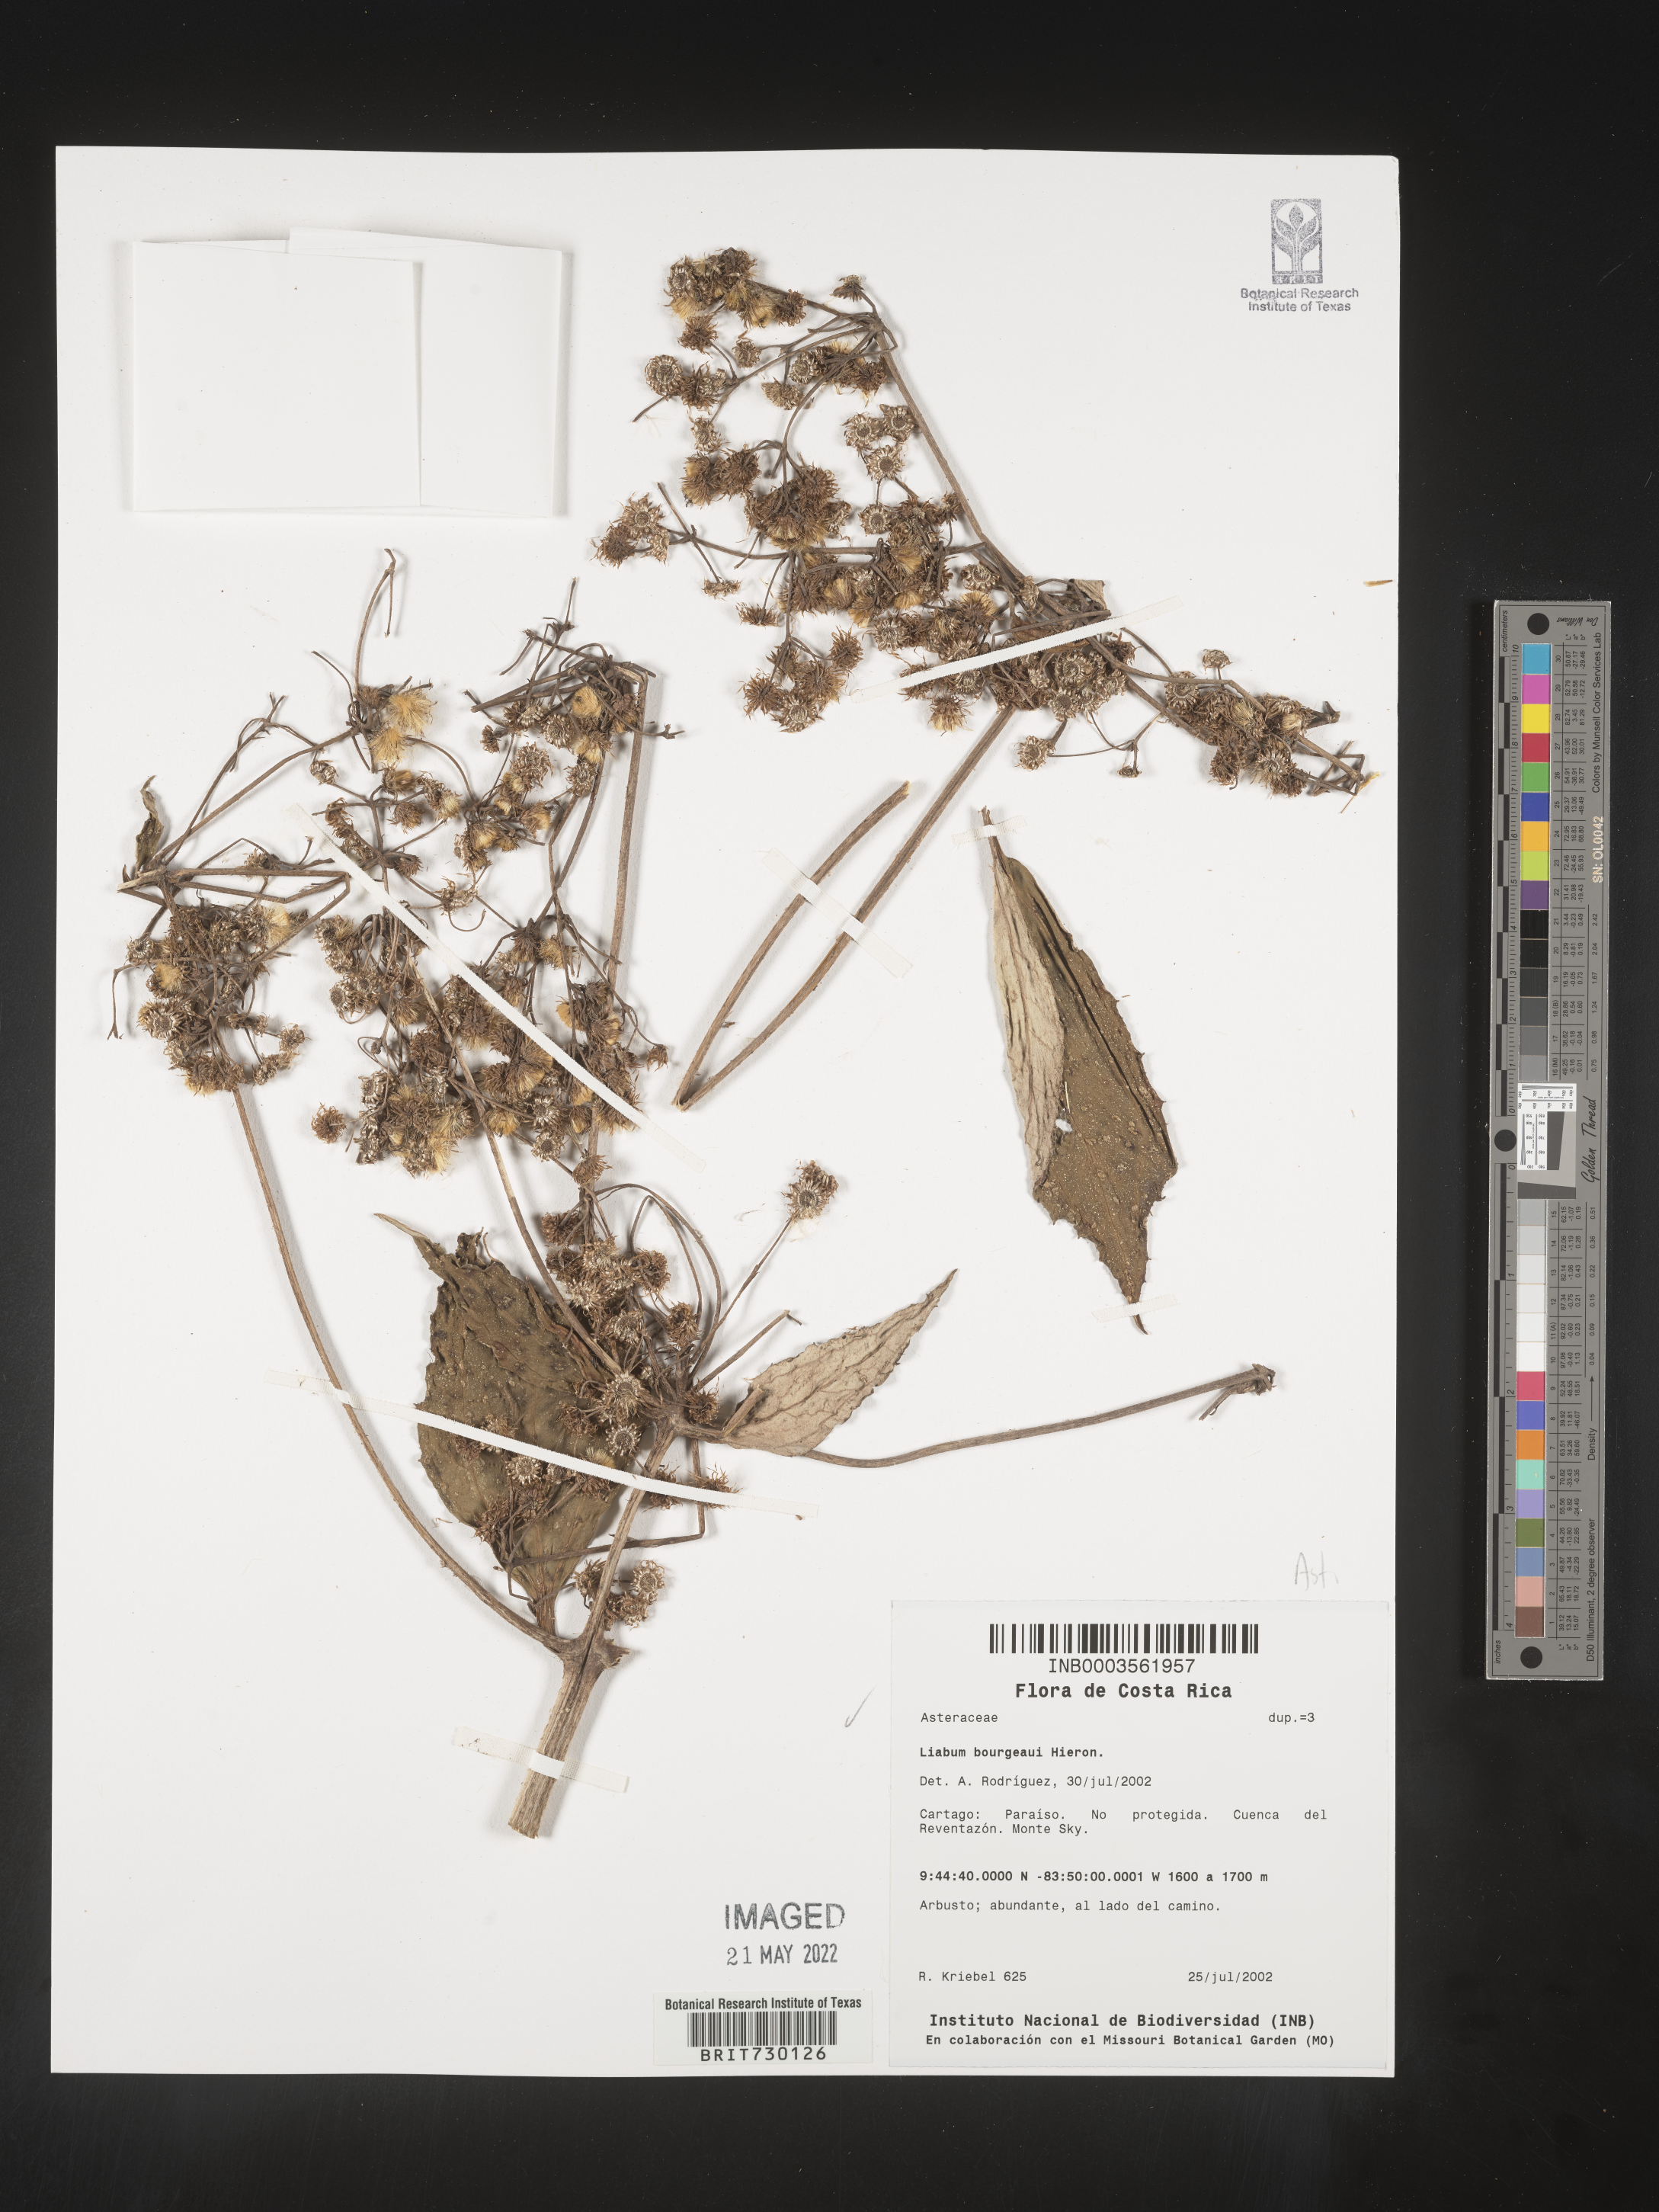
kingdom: Plantae
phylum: Tracheophyta
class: Magnoliopsida
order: Asterales
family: Asteraceae
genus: Liabum
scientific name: Liabum
